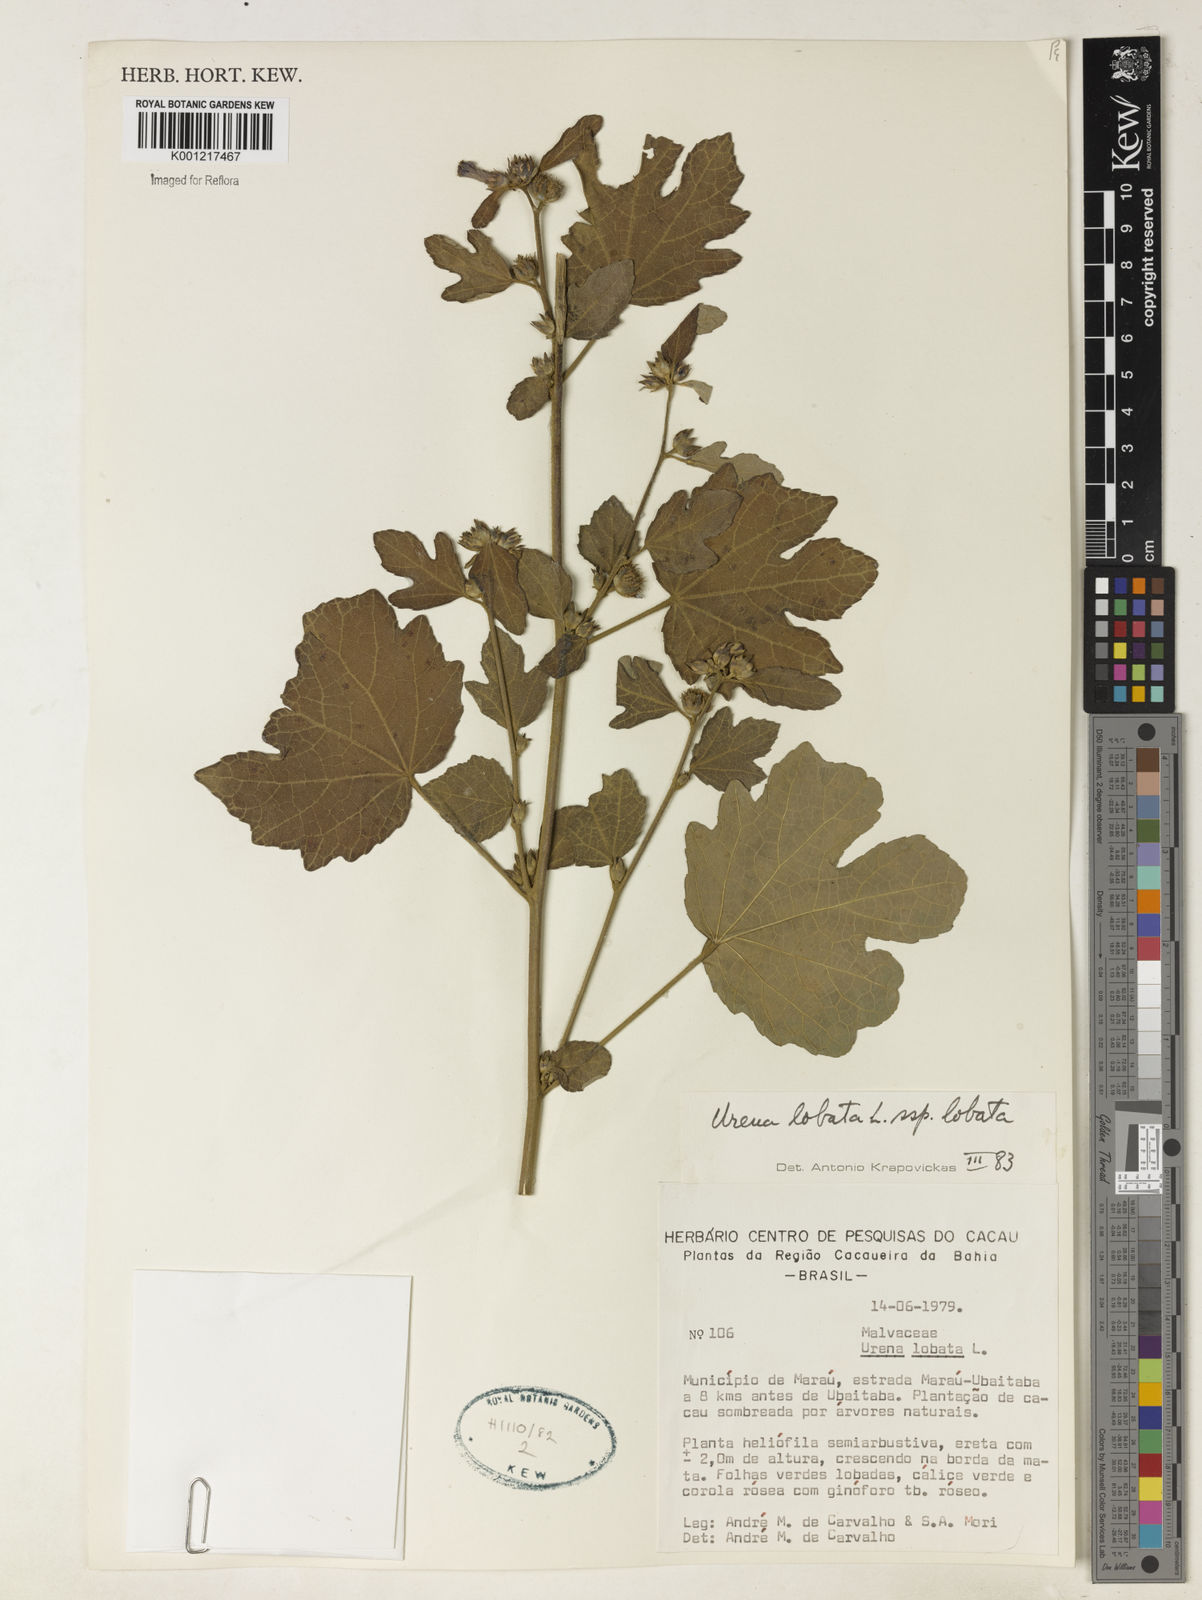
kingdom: Plantae
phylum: Tracheophyta
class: Magnoliopsida
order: Malvales
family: Malvaceae
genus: Urena
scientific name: Urena lobata
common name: Caesarweed
